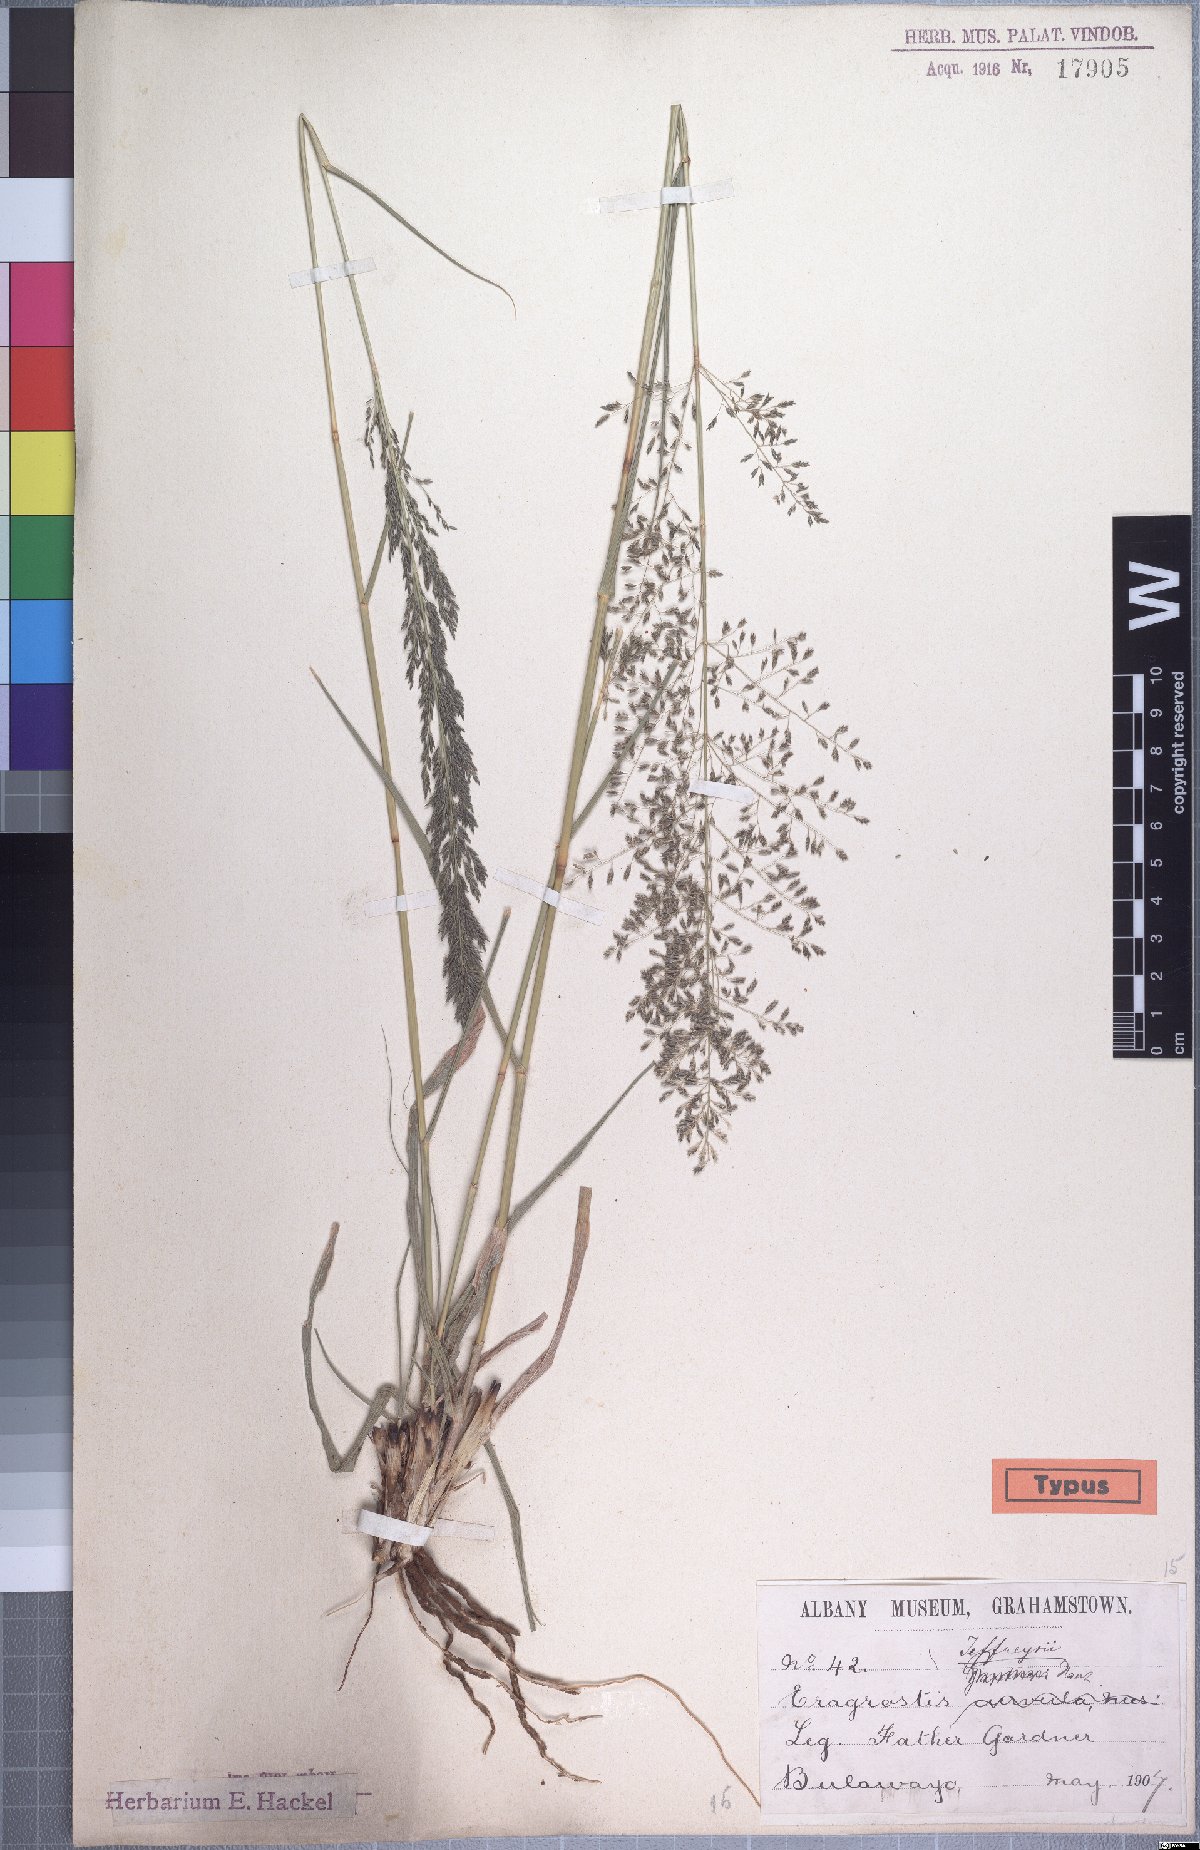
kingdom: Plantae
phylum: Tracheophyta
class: Liliopsida
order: Poales
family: Poaceae
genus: Eragrostis
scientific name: Eragrostis curvula
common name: African love-grass
